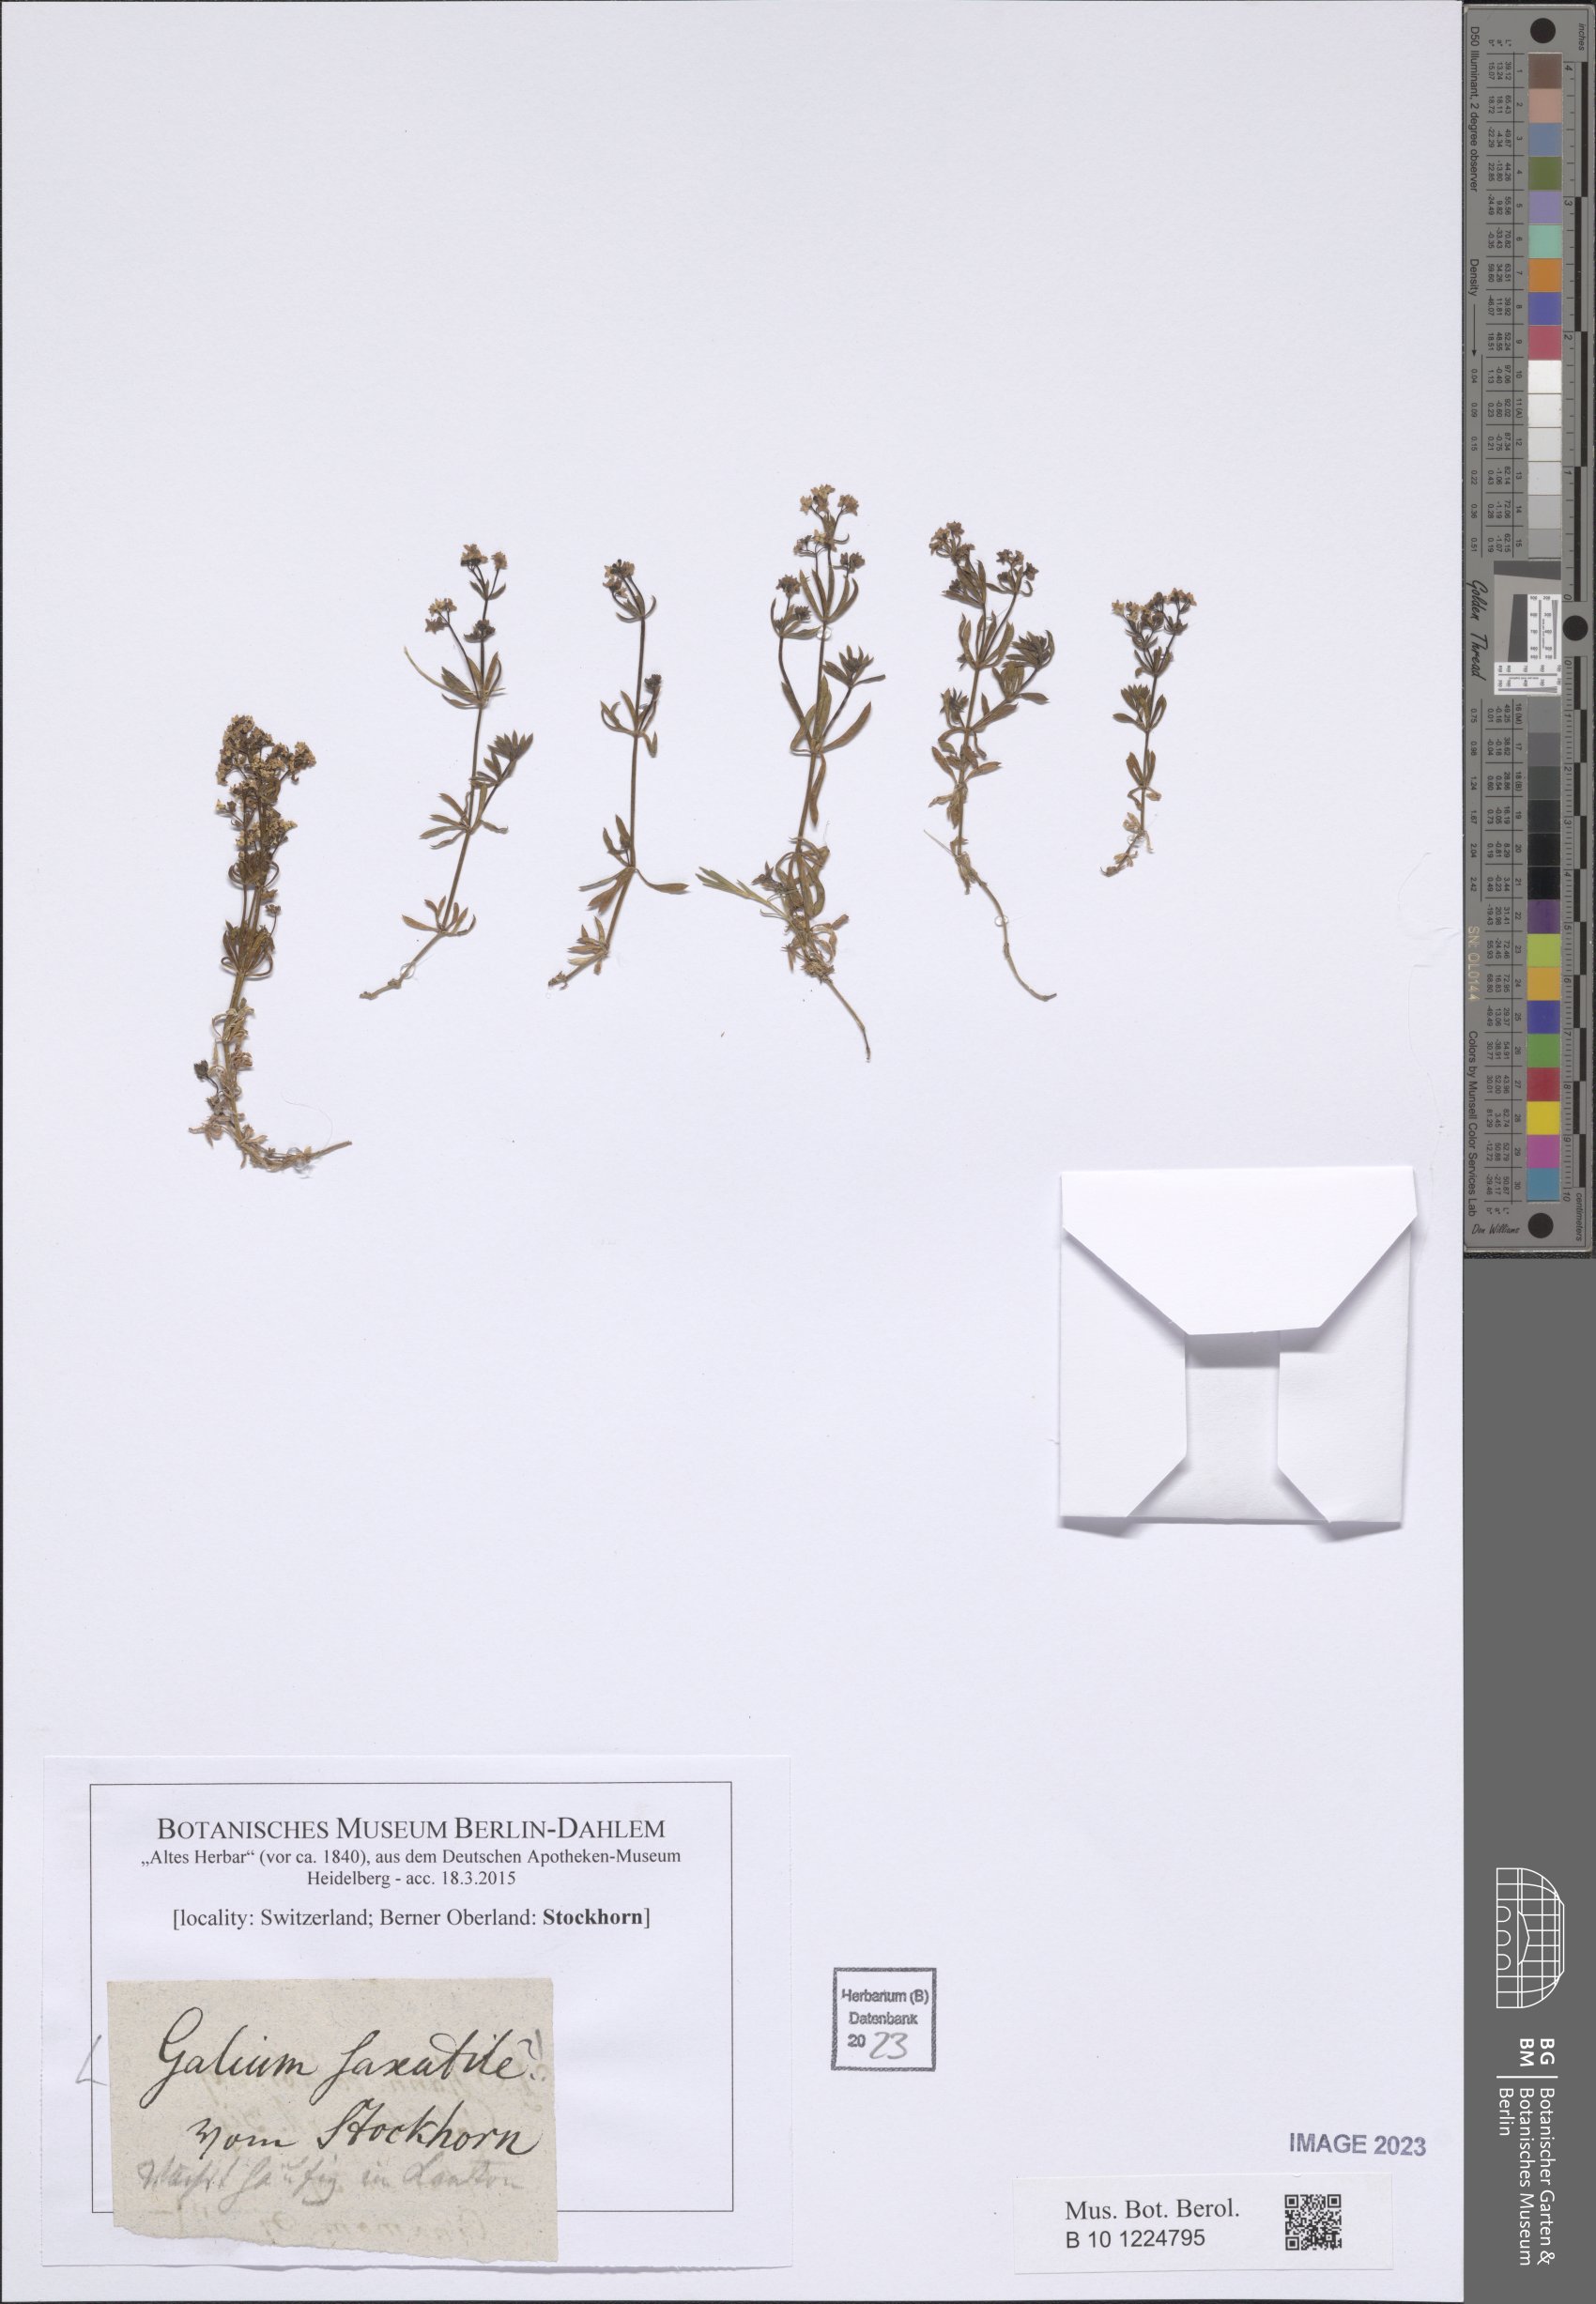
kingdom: Plantae
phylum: Tracheophyta
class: Magnoliopsida
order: Gentianales
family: Rubiaceae
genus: Galium
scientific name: Galium saxatile
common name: Heath bedstraw
